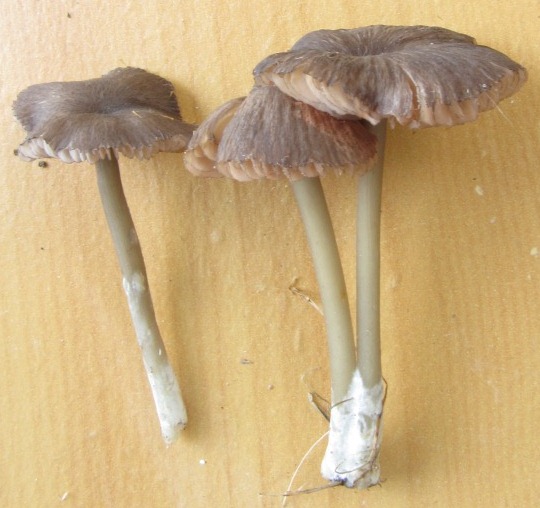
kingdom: Fungi
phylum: Basidiomycota
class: Agaricomycetes
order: Agaricales
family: Entolomataceae
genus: Entoloma
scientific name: Entoloma caesiocinctum
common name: Blue-girdled pinkgill
